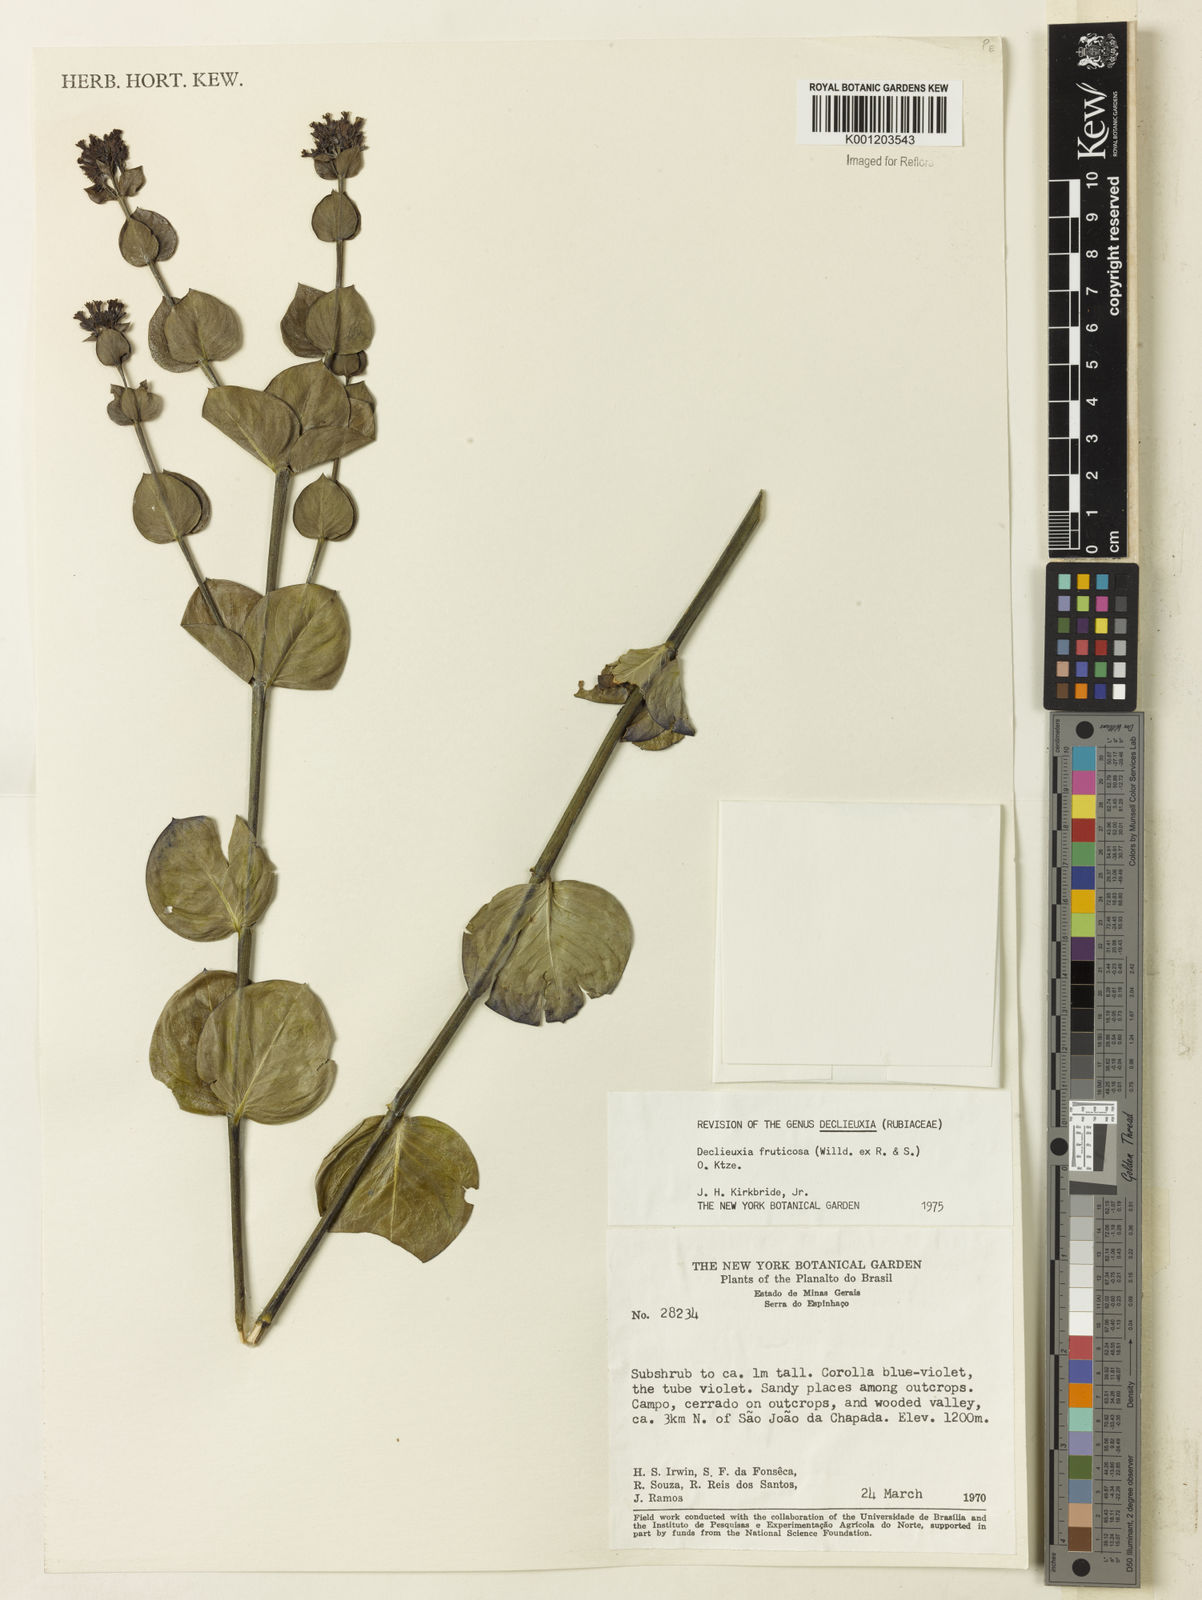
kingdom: Plantae
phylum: Tracheophyta
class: Magnoliopsida
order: Gentianales
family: Rubiaceae
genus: Declieuxia
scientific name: Declieuxia fruticosa
